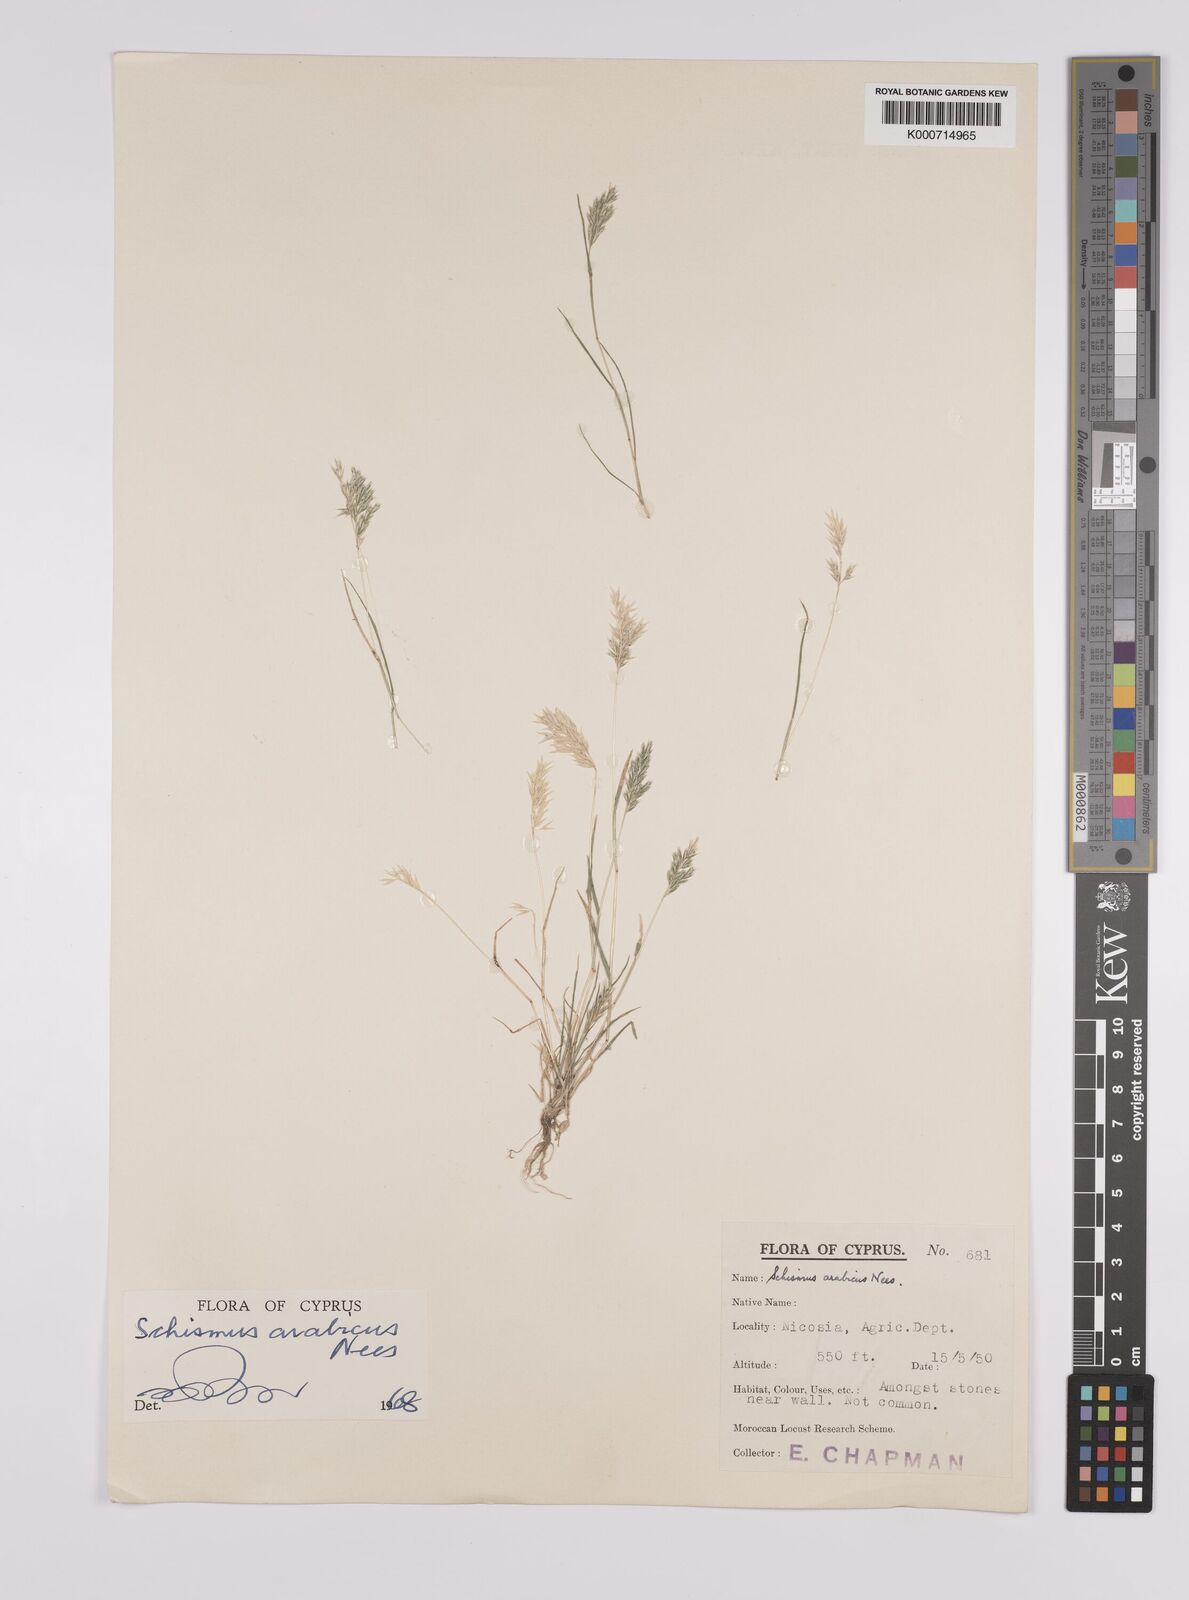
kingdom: Plantae
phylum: Tracheophyta
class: Liliopsida
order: Poales
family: Poaceae
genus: Schismus
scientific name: Schismus arabicus
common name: Arabian schismus
